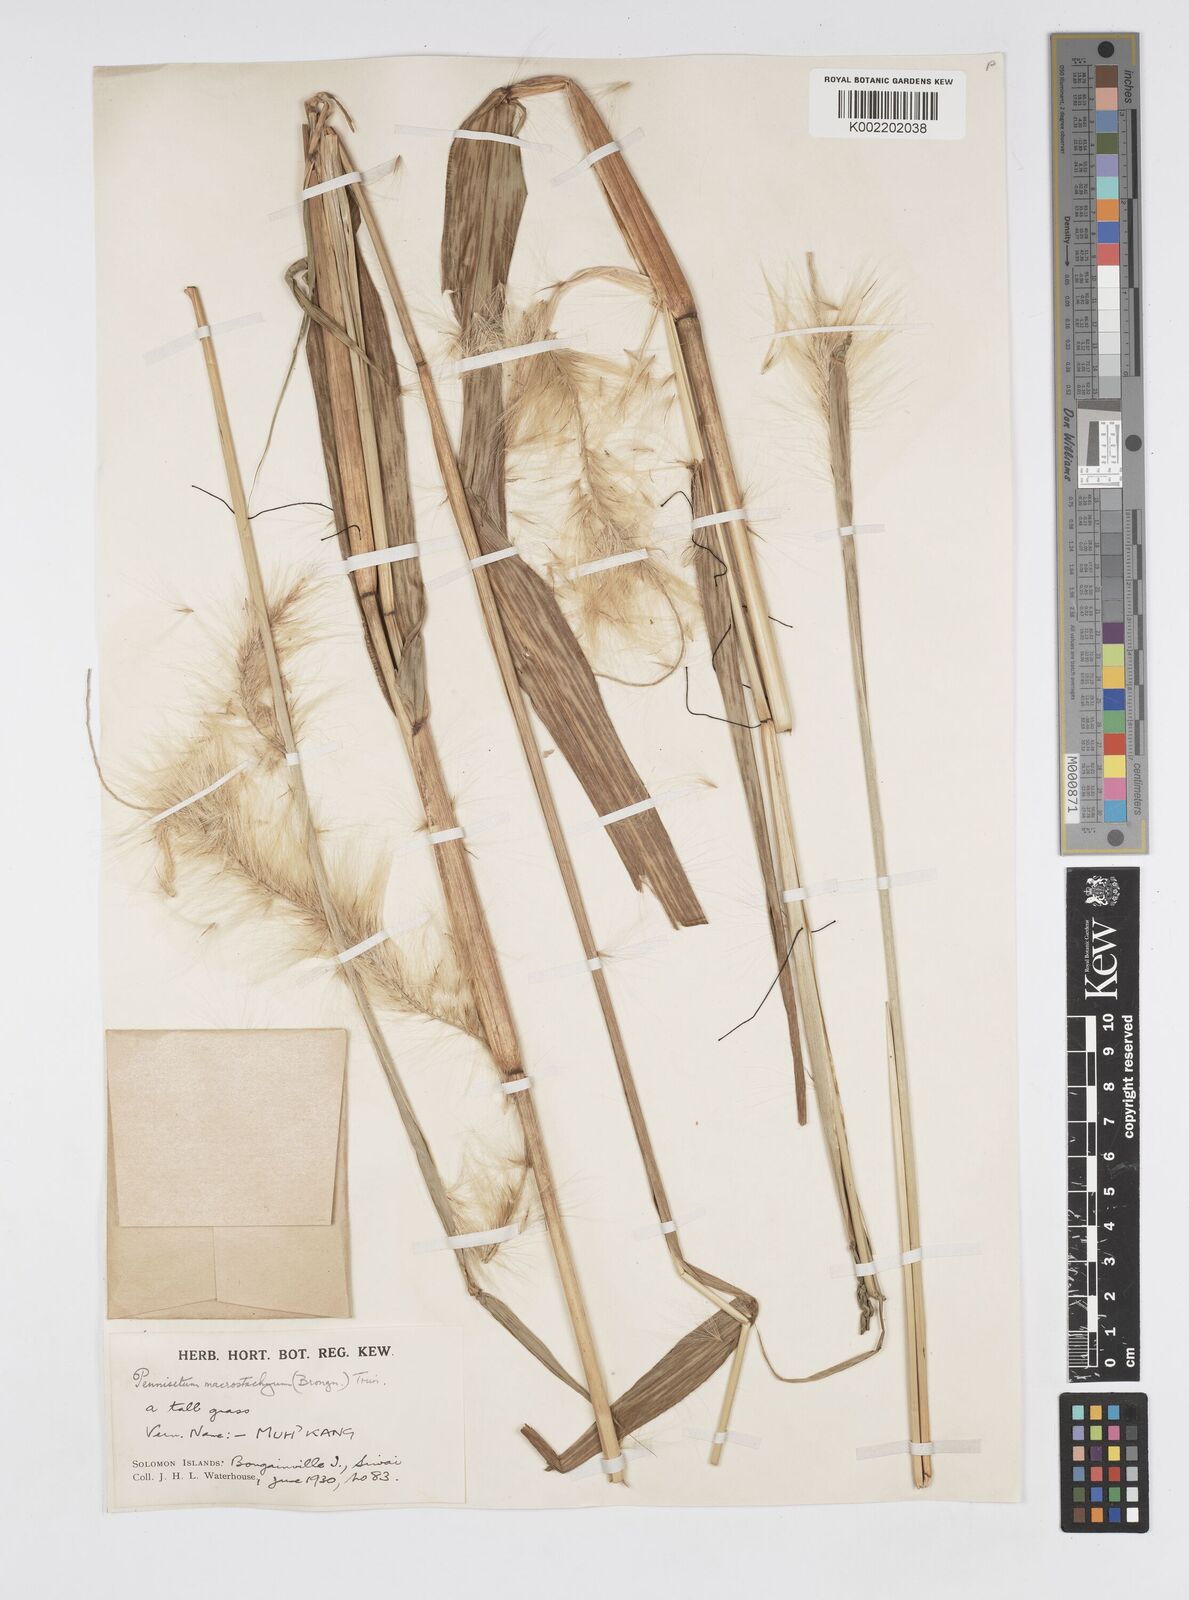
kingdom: Plantae
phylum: Tracheophyta
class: Liliopsida
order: Poales
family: Poaceae
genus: Cenchrus
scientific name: Cenchrus purpureus
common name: Elephant grass
